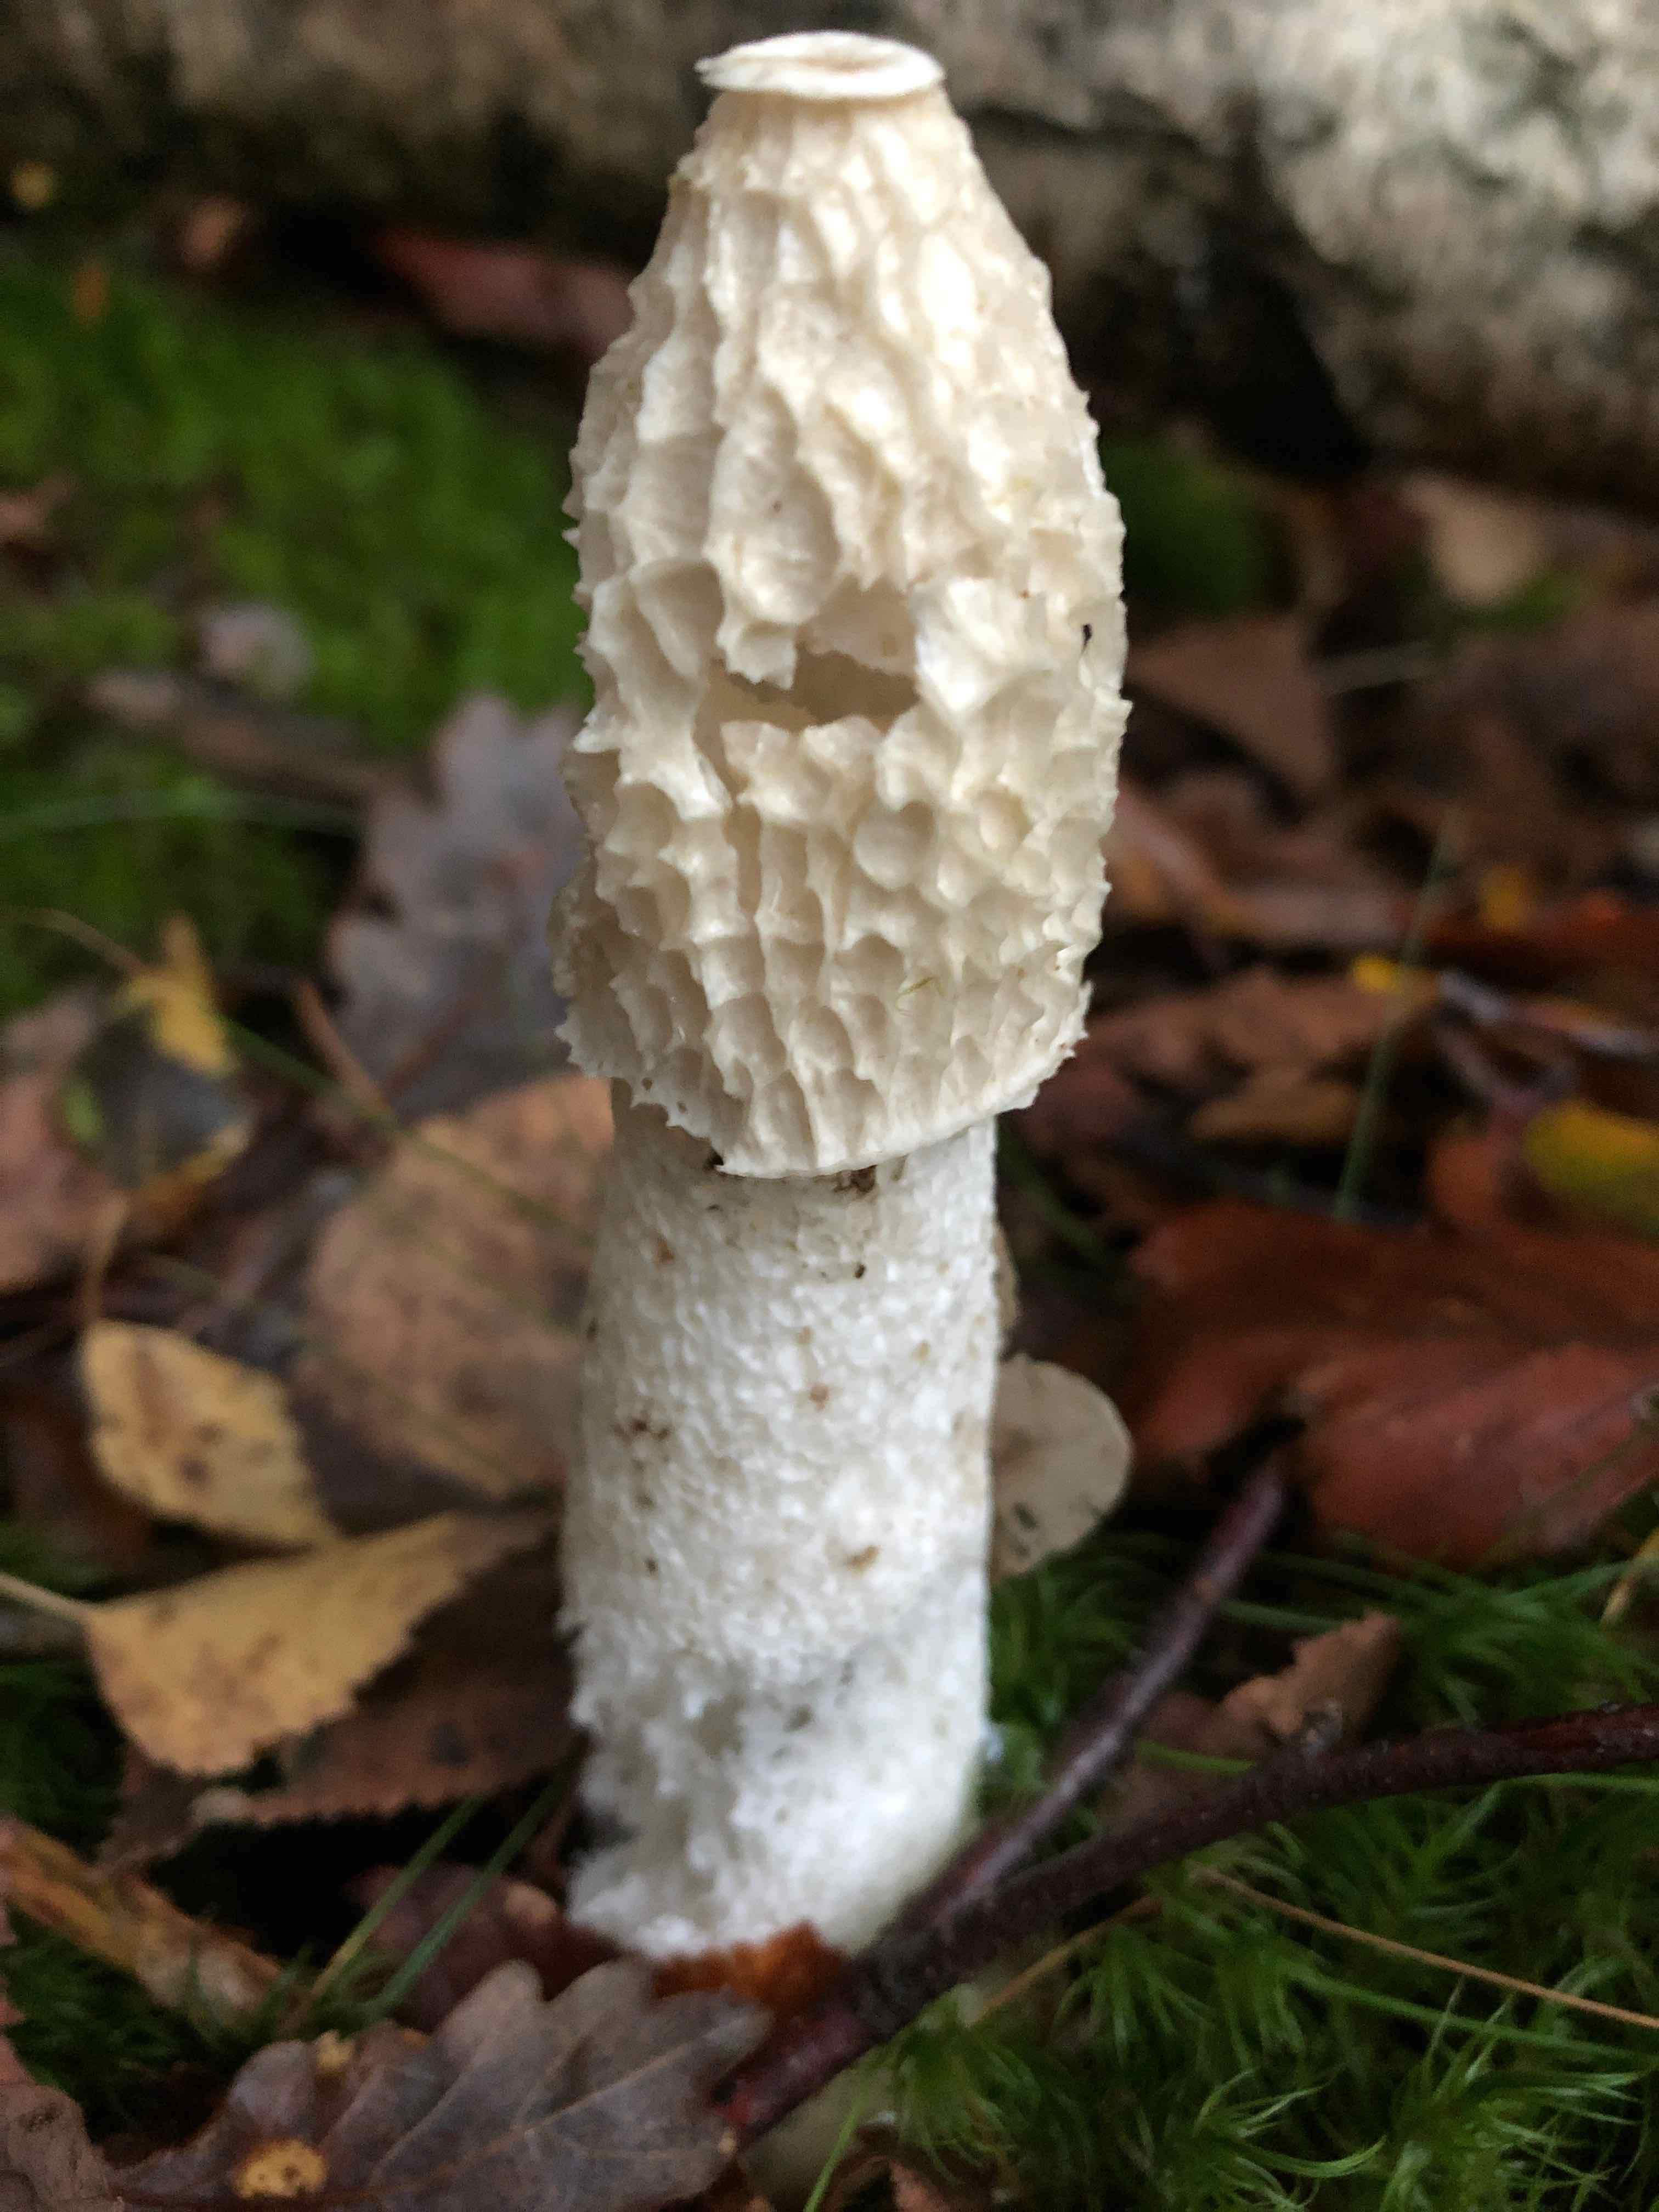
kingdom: Fungi
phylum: Basidiomycota
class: Agaricomycetes
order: Phallales
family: Phallaceae
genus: Phallus
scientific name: Phallus impudicus
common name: almindelig stinksvamp
